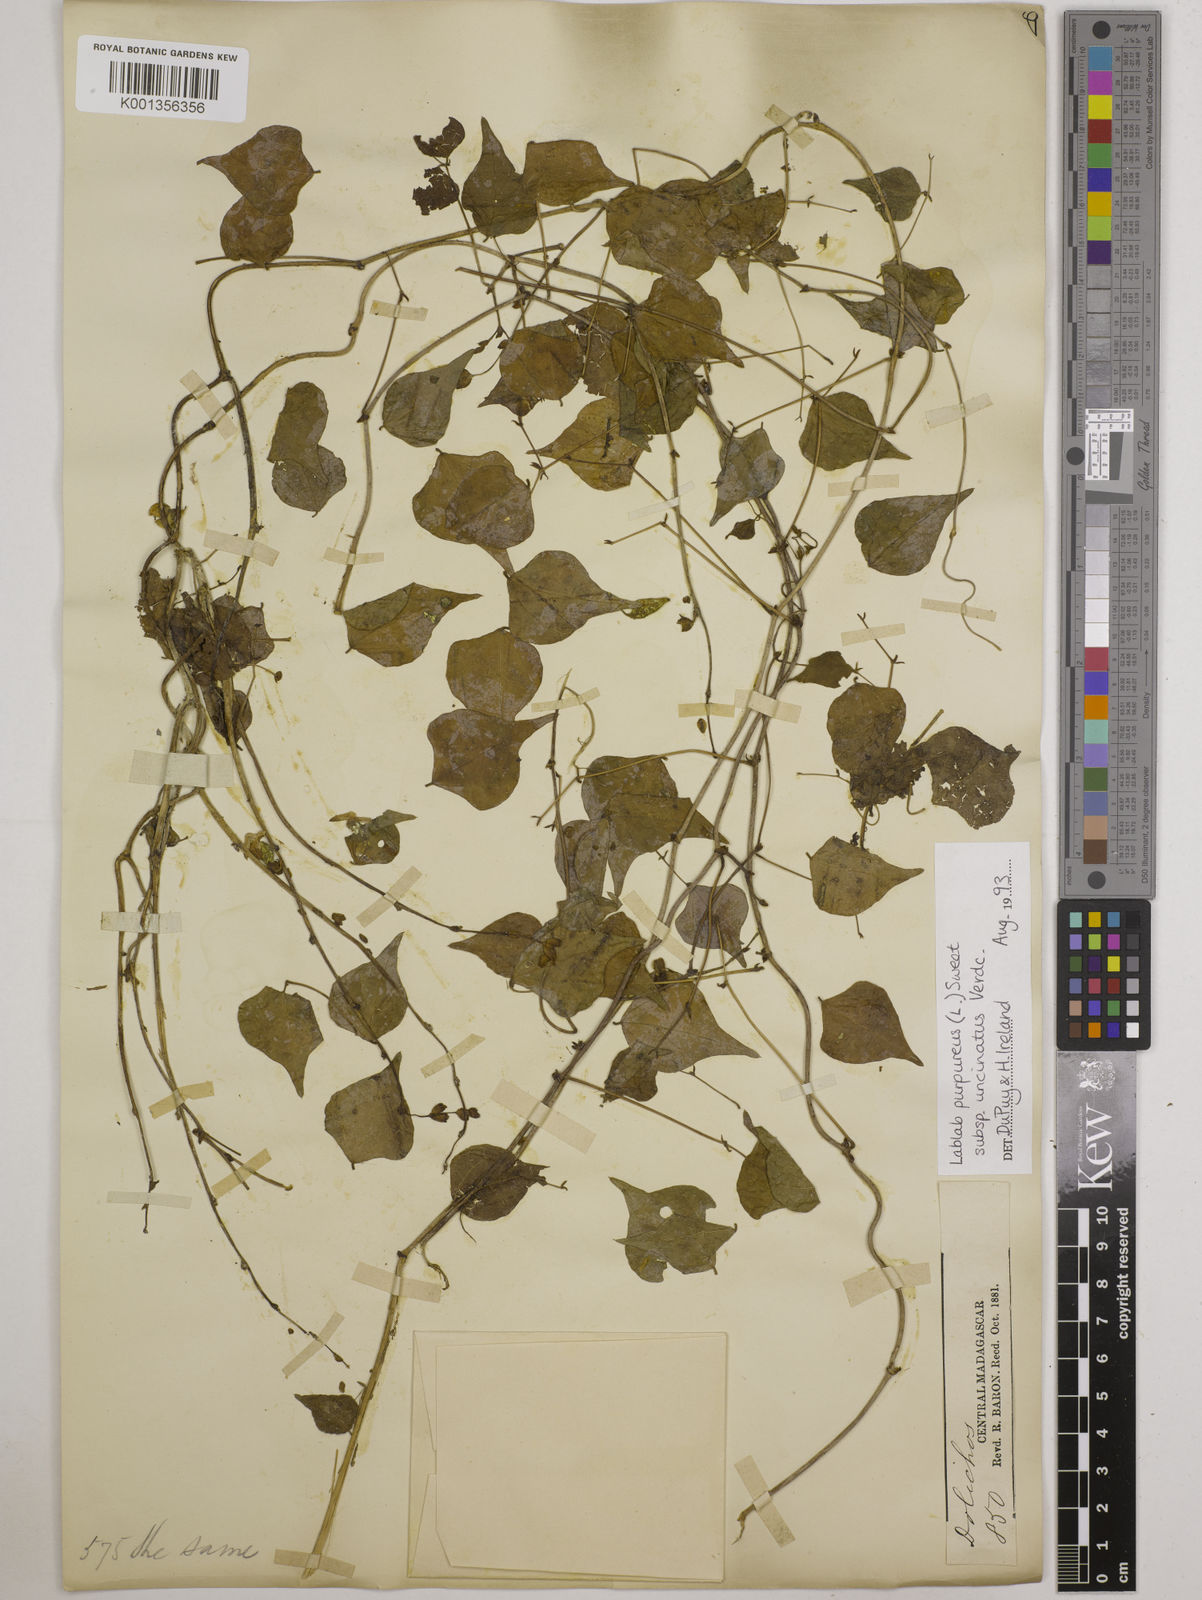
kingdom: Plantae
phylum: Tracheophyta
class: Magnoliopsida
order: Fabales
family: Fabaceae
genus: Lablab
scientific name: Lablab purpureus
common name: Lablab-bean
